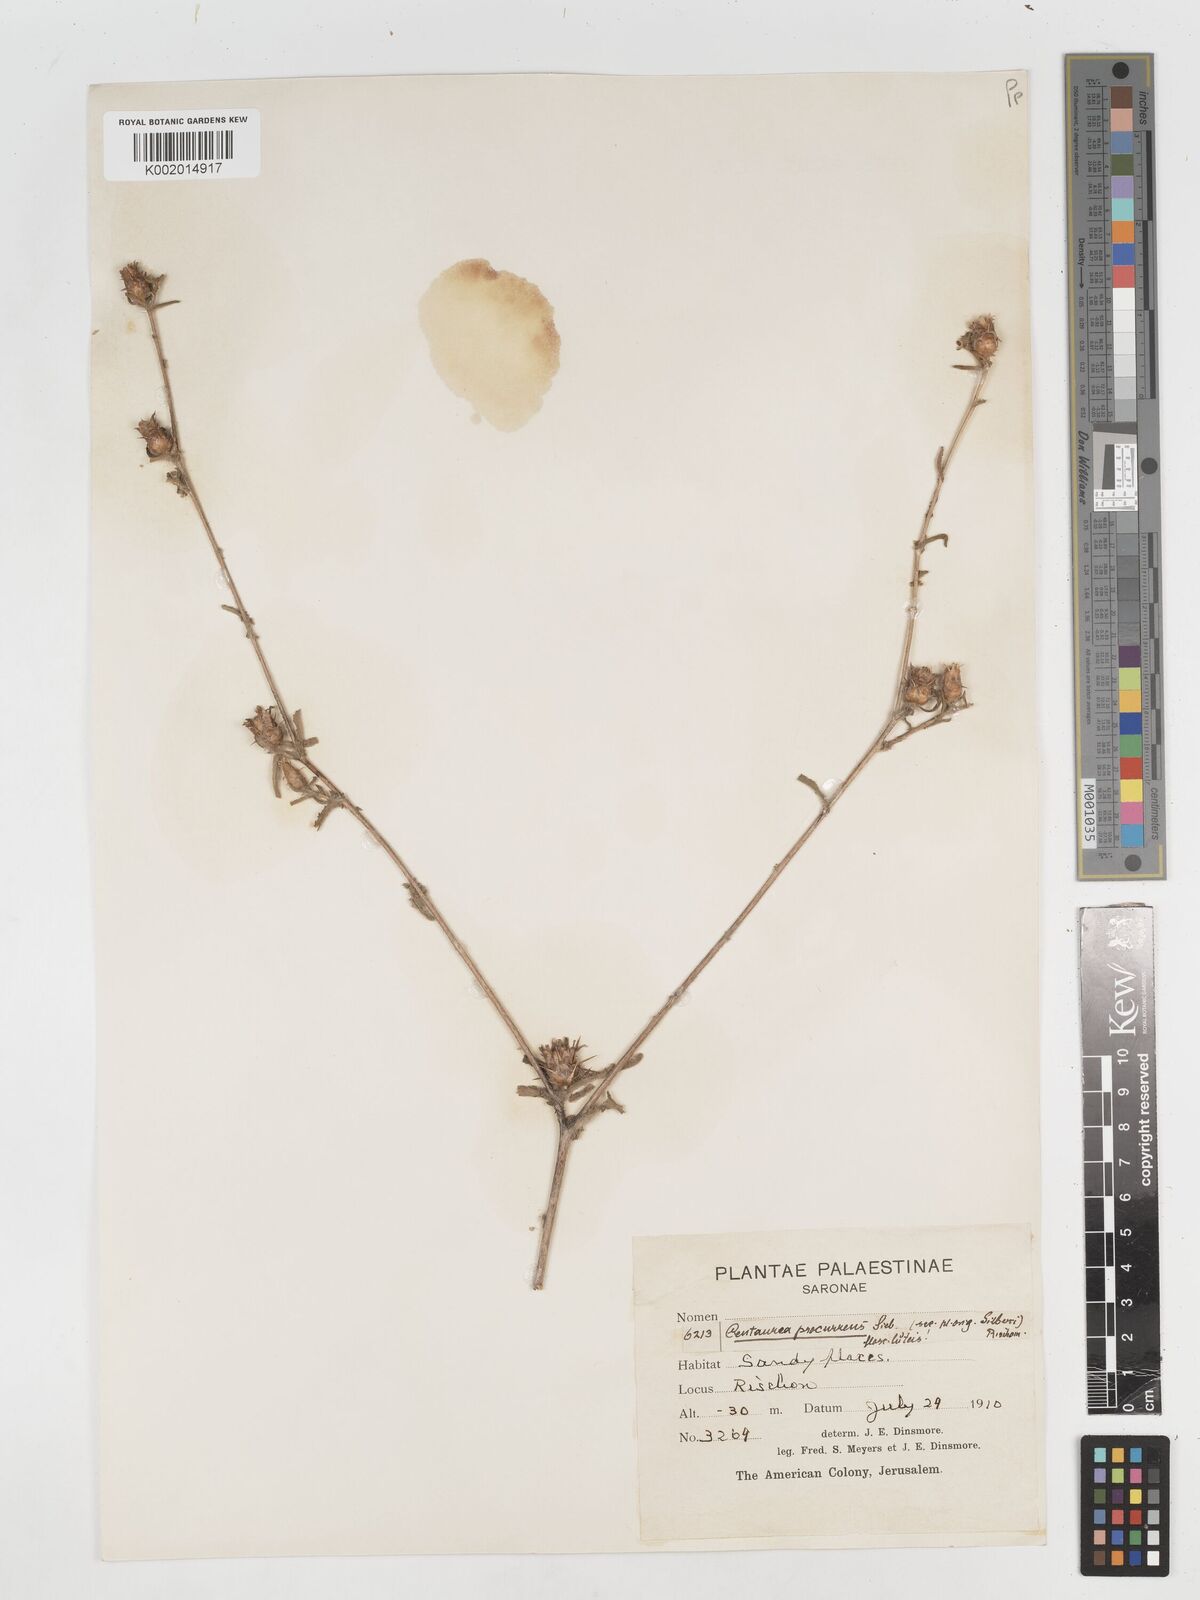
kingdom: Plantae
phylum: Tracheophyta
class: Magnoliopsida
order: Asterales
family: Asteraceae
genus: Centaurea
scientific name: Centaurea procurrens
